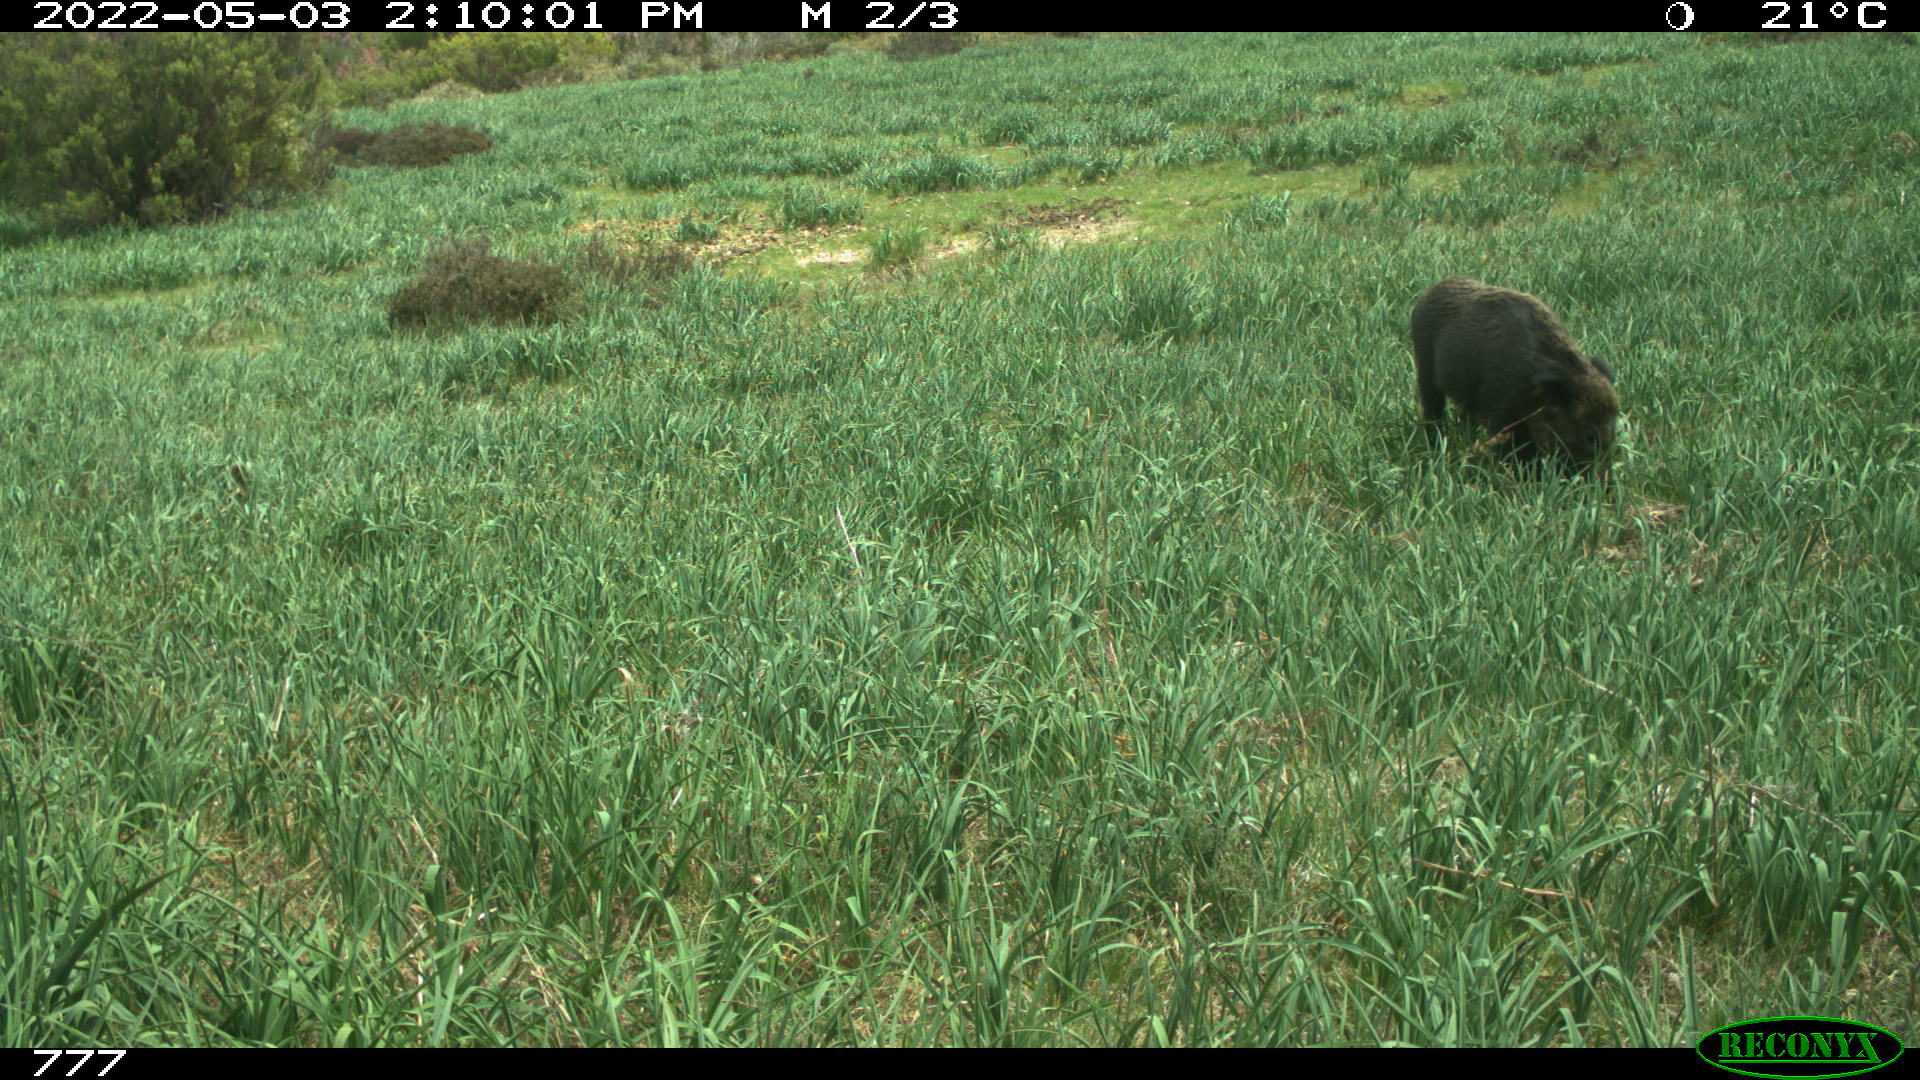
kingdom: Animalia
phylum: Chordata
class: Mammalia
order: Artiodactyla
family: Suidae
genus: Sus
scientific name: Sus scrofa
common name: Wild boar
